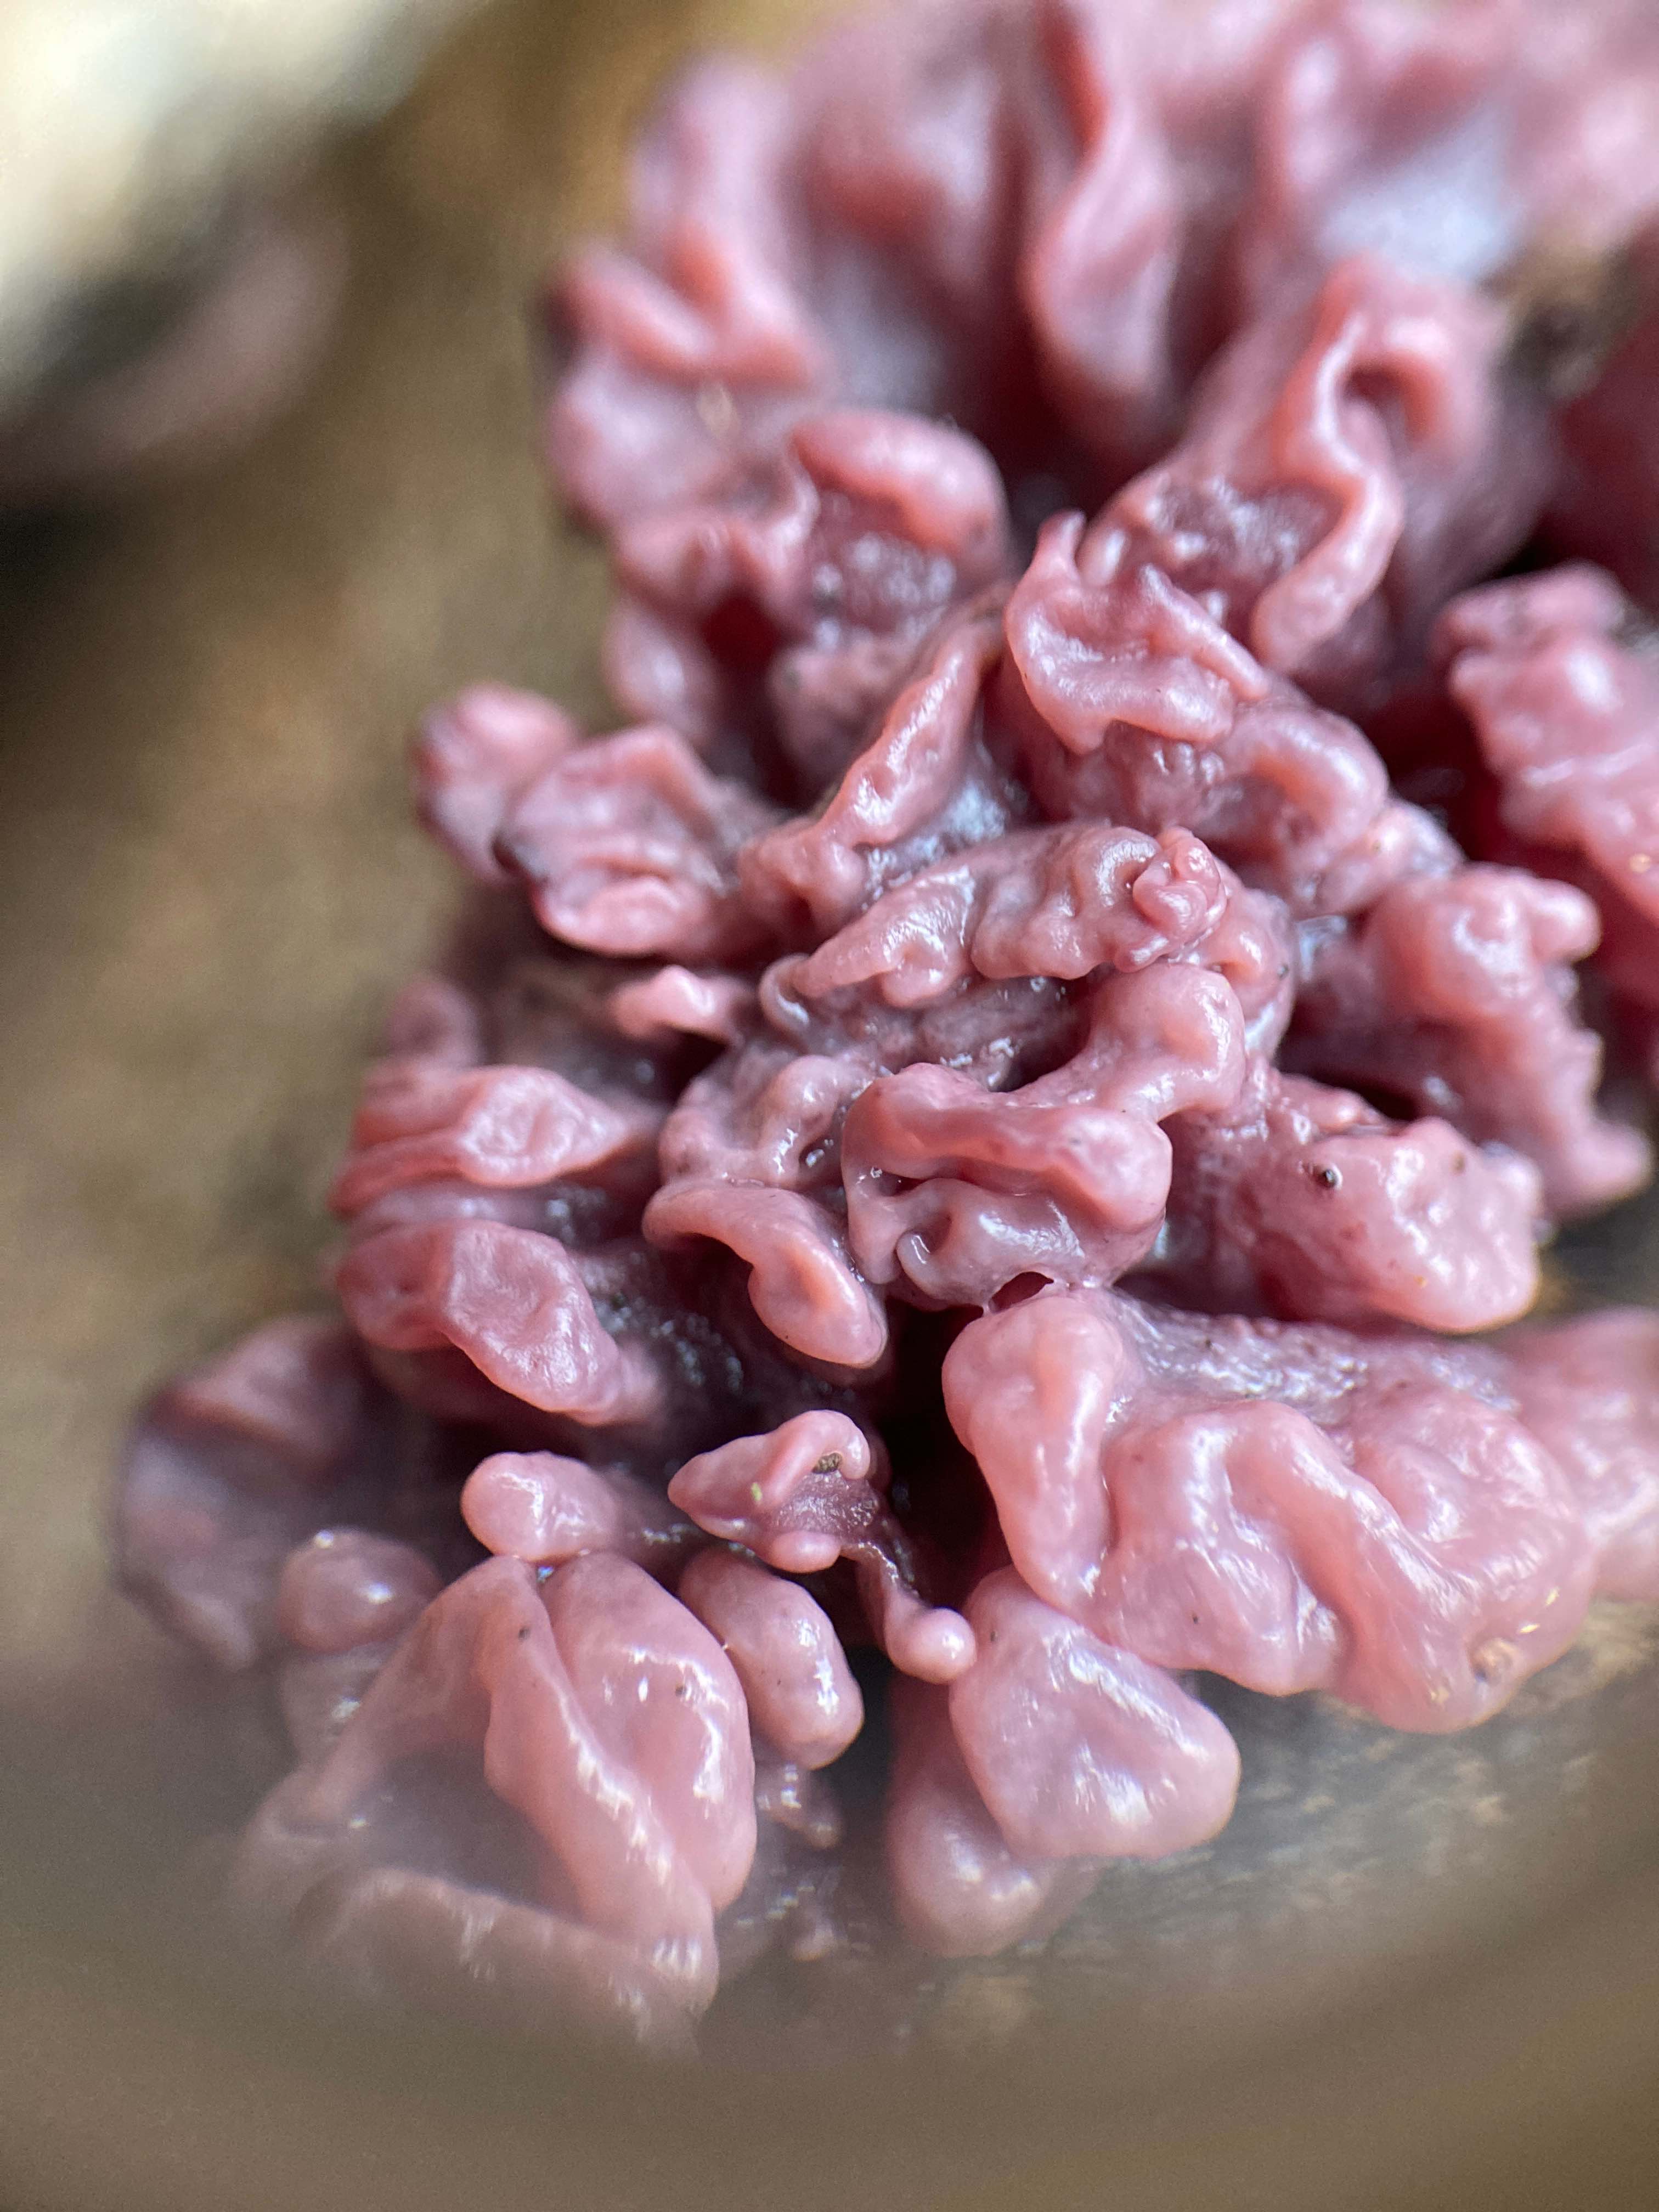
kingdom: Fungi
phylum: Ascomycota
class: Leotiomycetes
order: Helotiales
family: Gelatinodiscaceae
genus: Ascocoryne
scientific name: Ascocoryne sarcoides
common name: rødlilla sejskive
